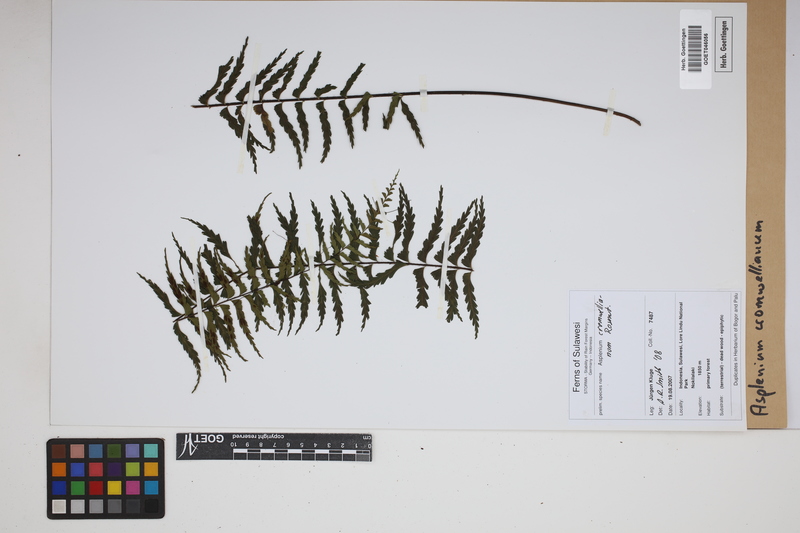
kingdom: Plantae
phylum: Tracheophyta
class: Polypodiopsida
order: Polypodiales
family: Aspleniaceae
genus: Asplenium
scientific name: Asplenium lobulatum
